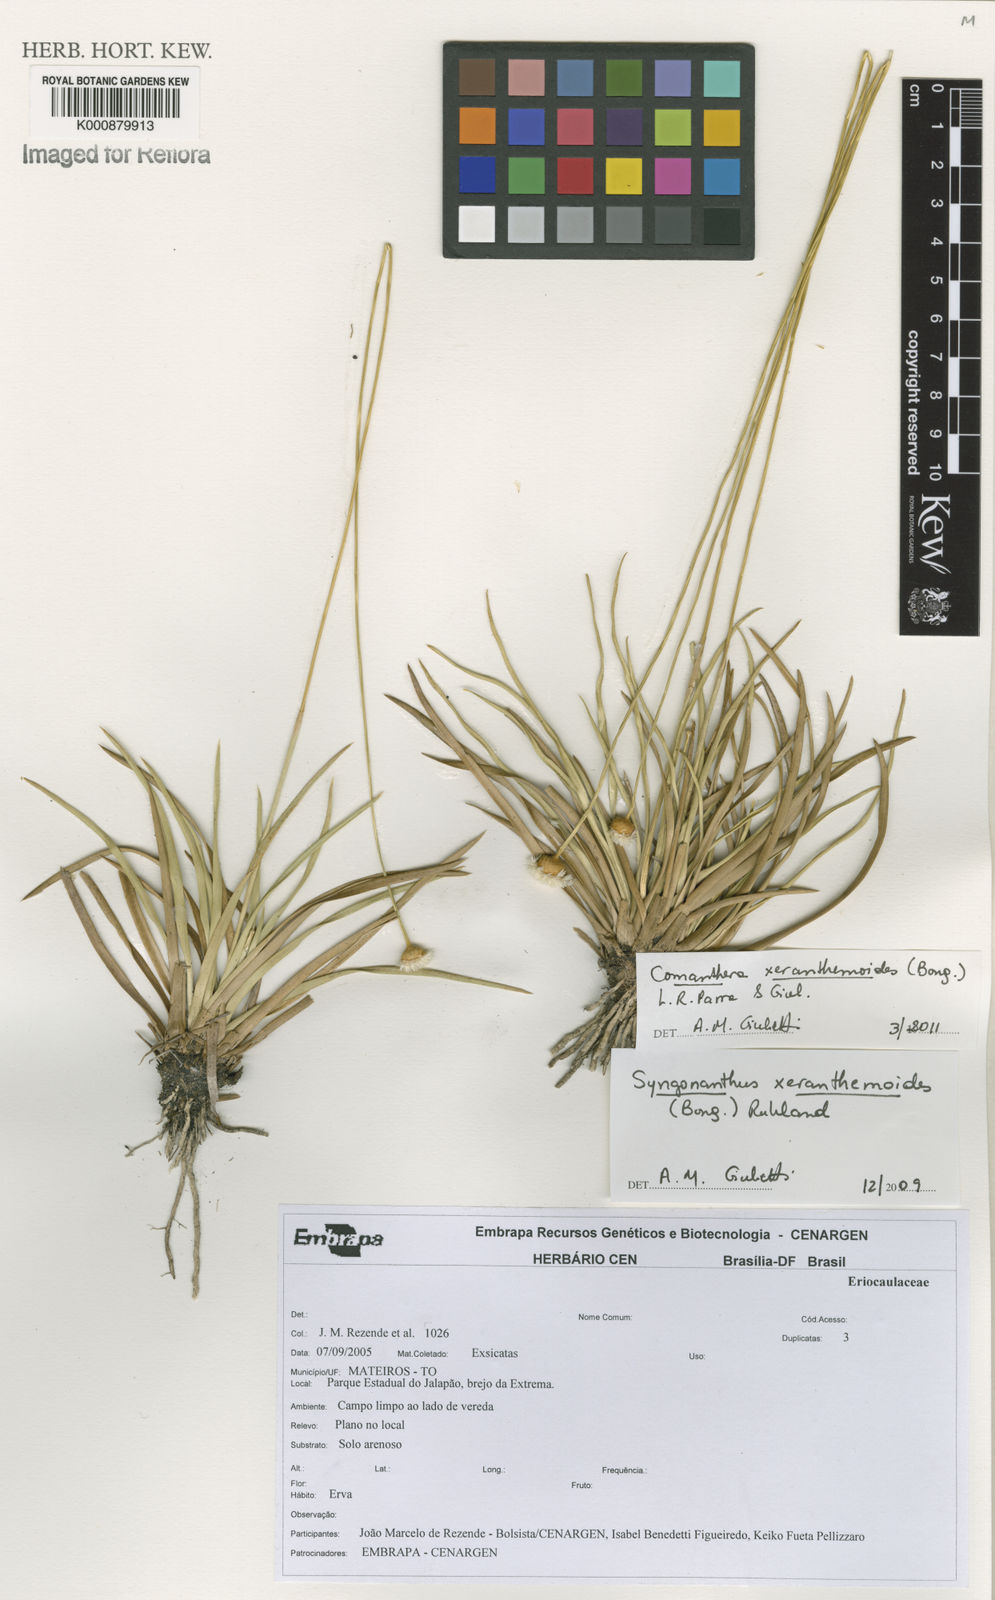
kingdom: Plantae
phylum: Tracheophyta
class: Liliopsida
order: Poales
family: Eriocaulaceae
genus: Comanthera
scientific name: Comanthera xeranthemoides
